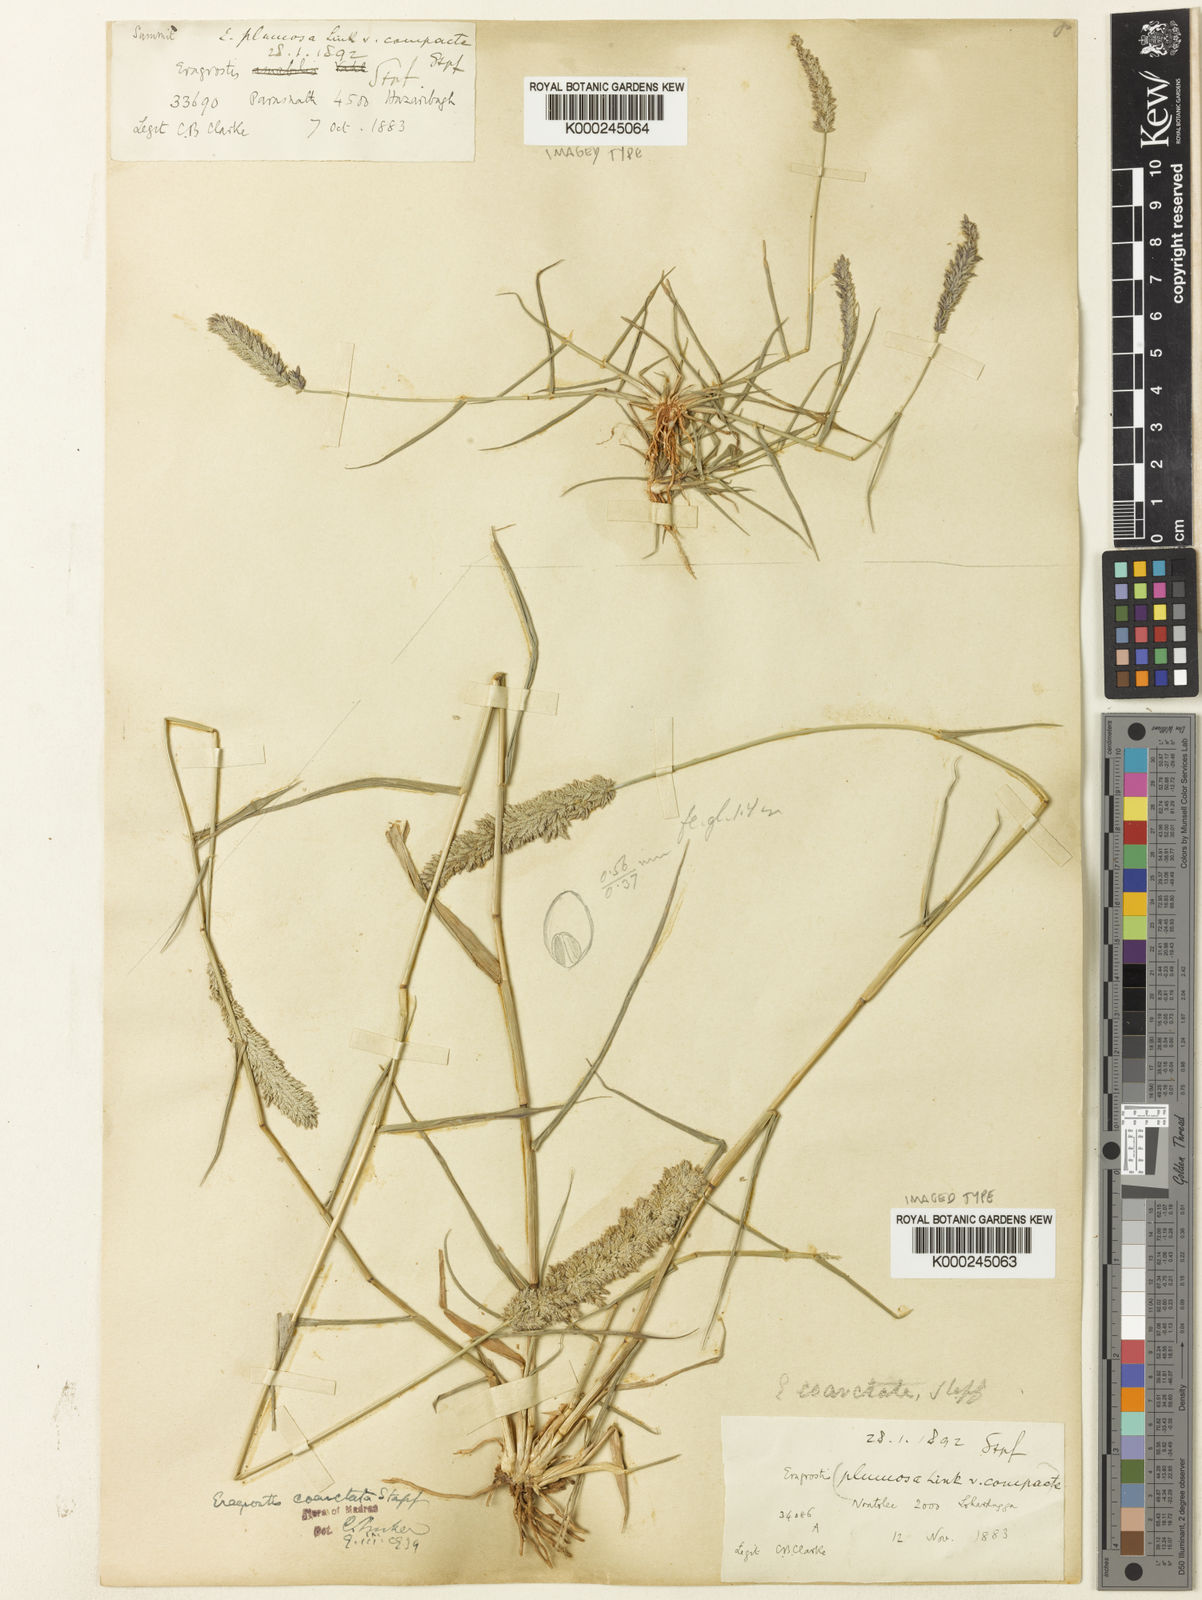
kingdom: Plantae
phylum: Tracheophyta
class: Liliopsida
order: Poales
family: Poaceae
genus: Eragrostis
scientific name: Eragrostis coarctata
